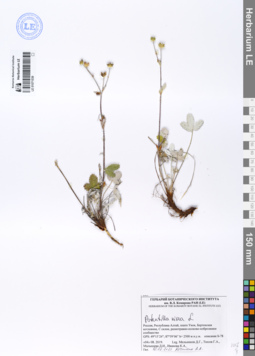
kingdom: Plantae
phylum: Tracheophyta
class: Magnoliopsida
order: Rosales
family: Rosaceae
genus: Potentilla
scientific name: Potentilla nivea
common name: Snow cinquefoil
